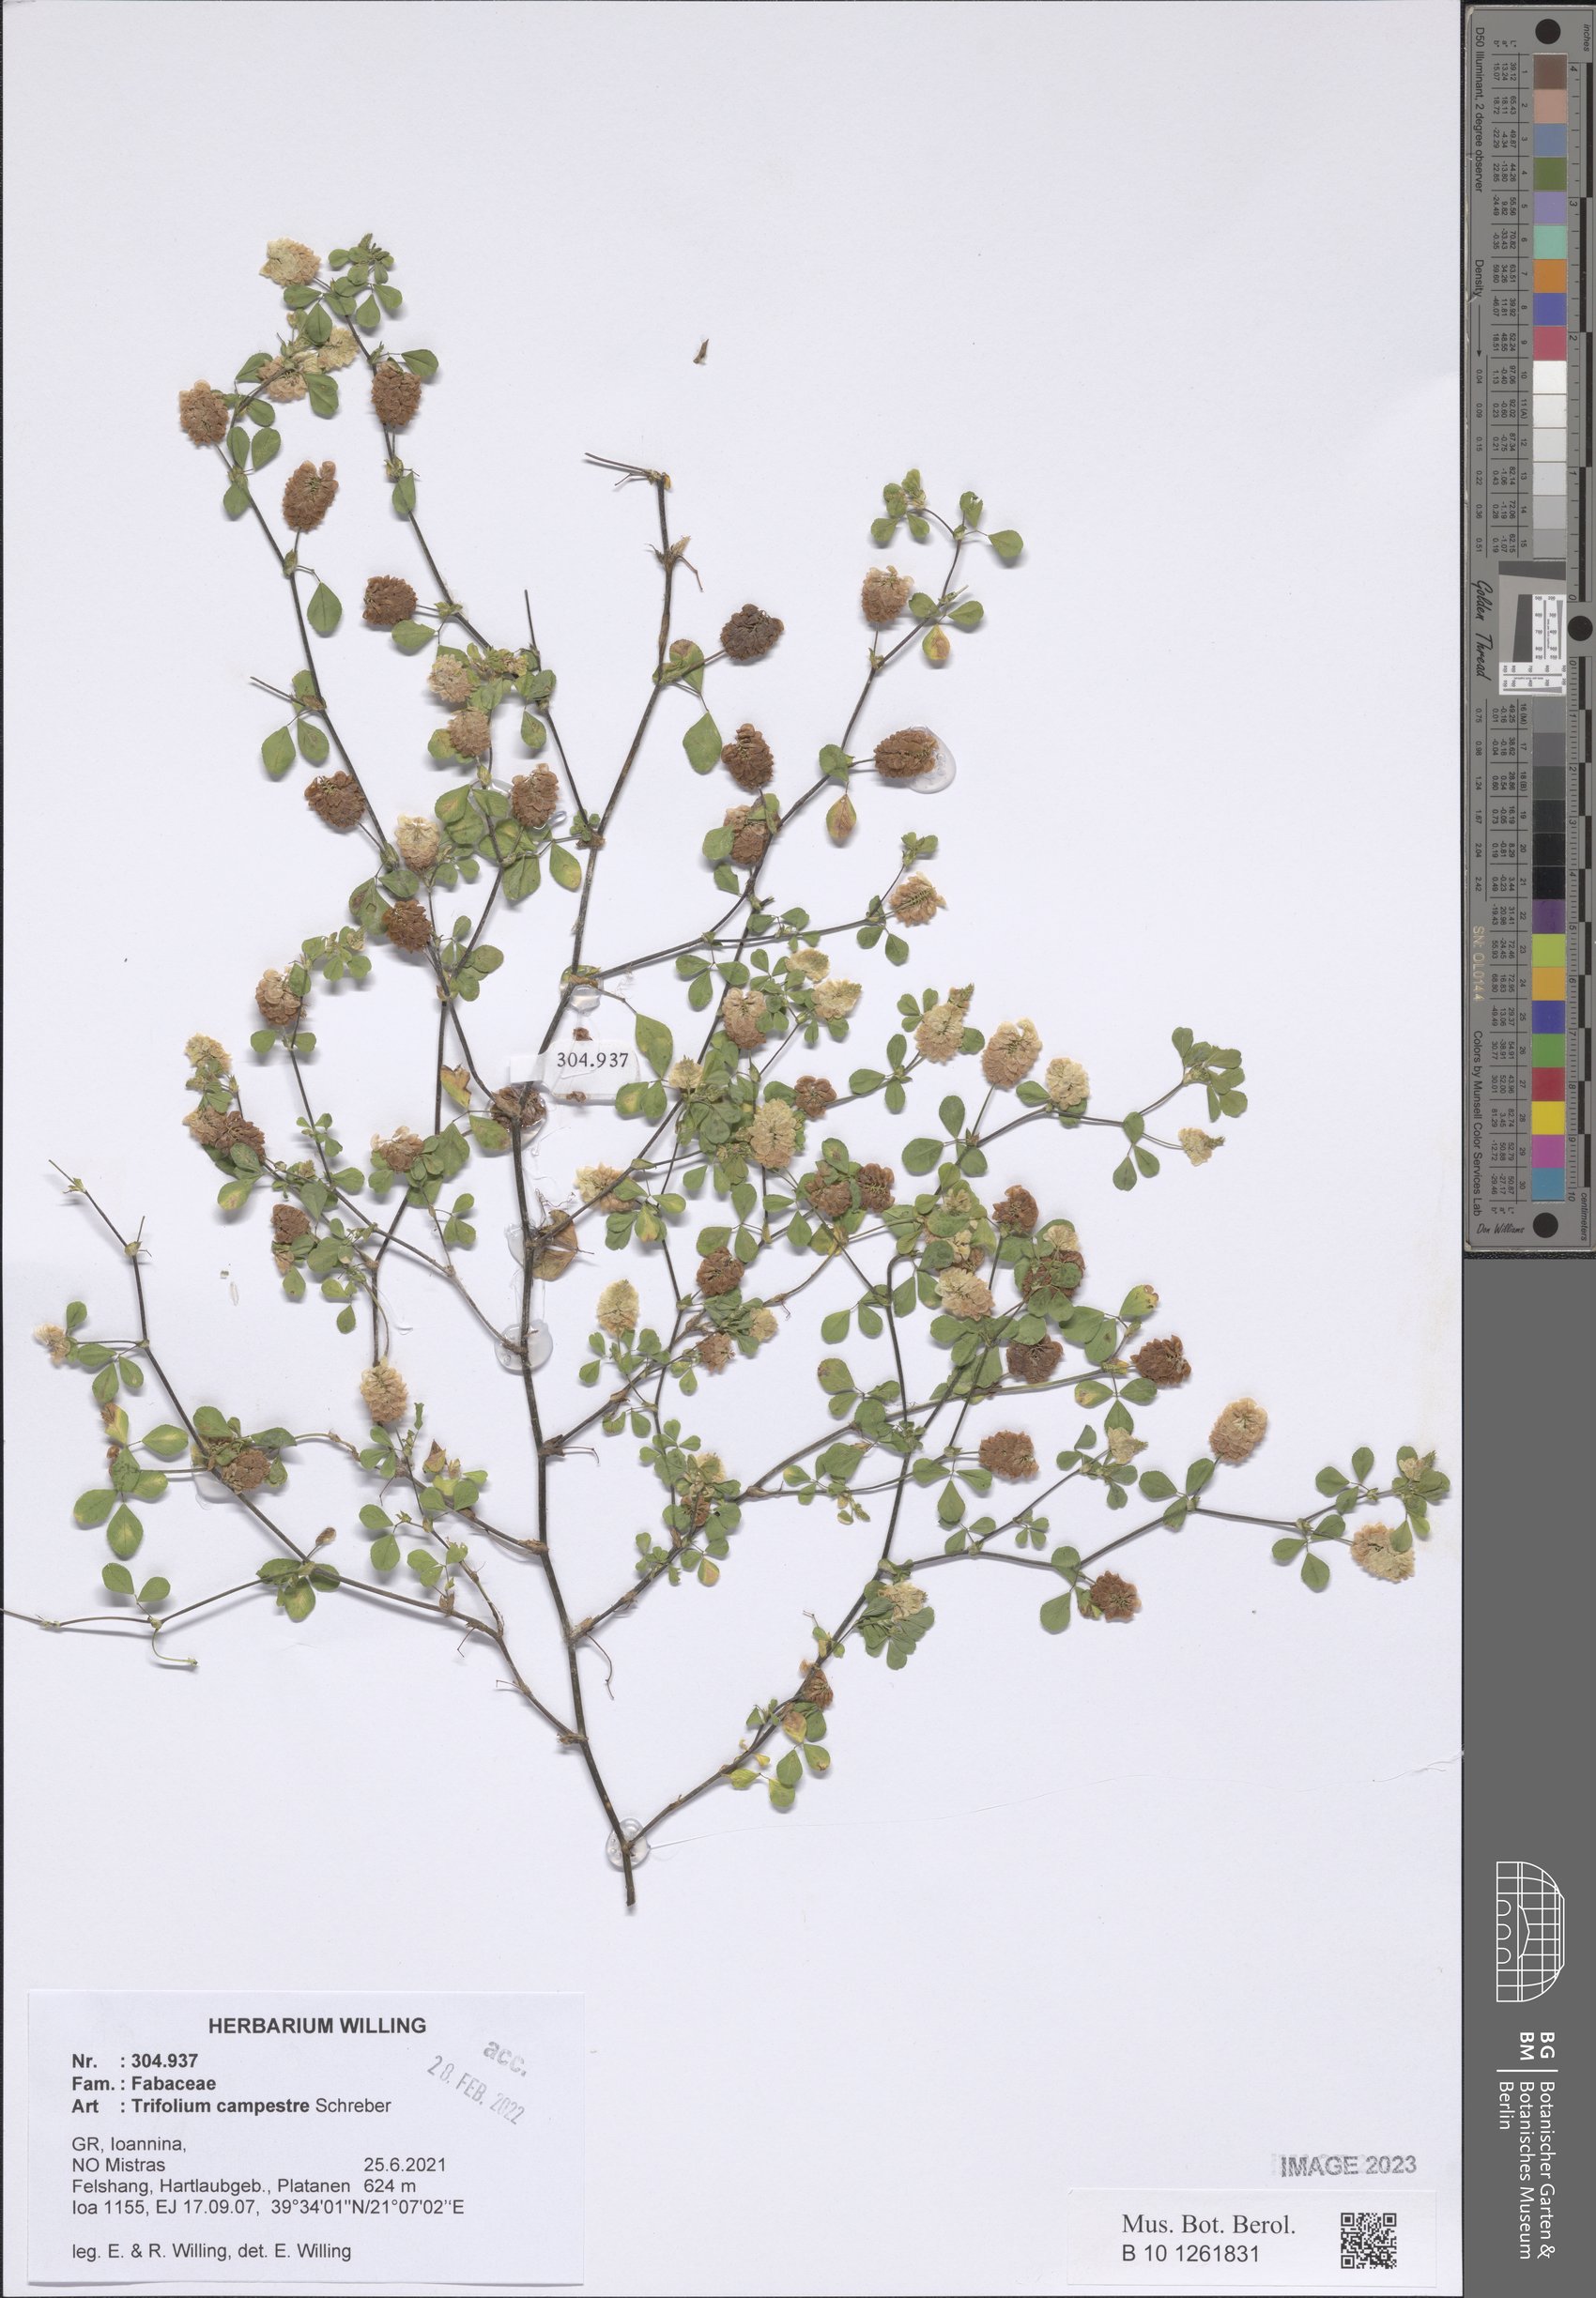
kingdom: Plantae
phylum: Tracheophyta
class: Magnoliopsida
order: Fabales
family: Fabaceae
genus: Trifolium
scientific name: Trifolium campestre
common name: Field clover
